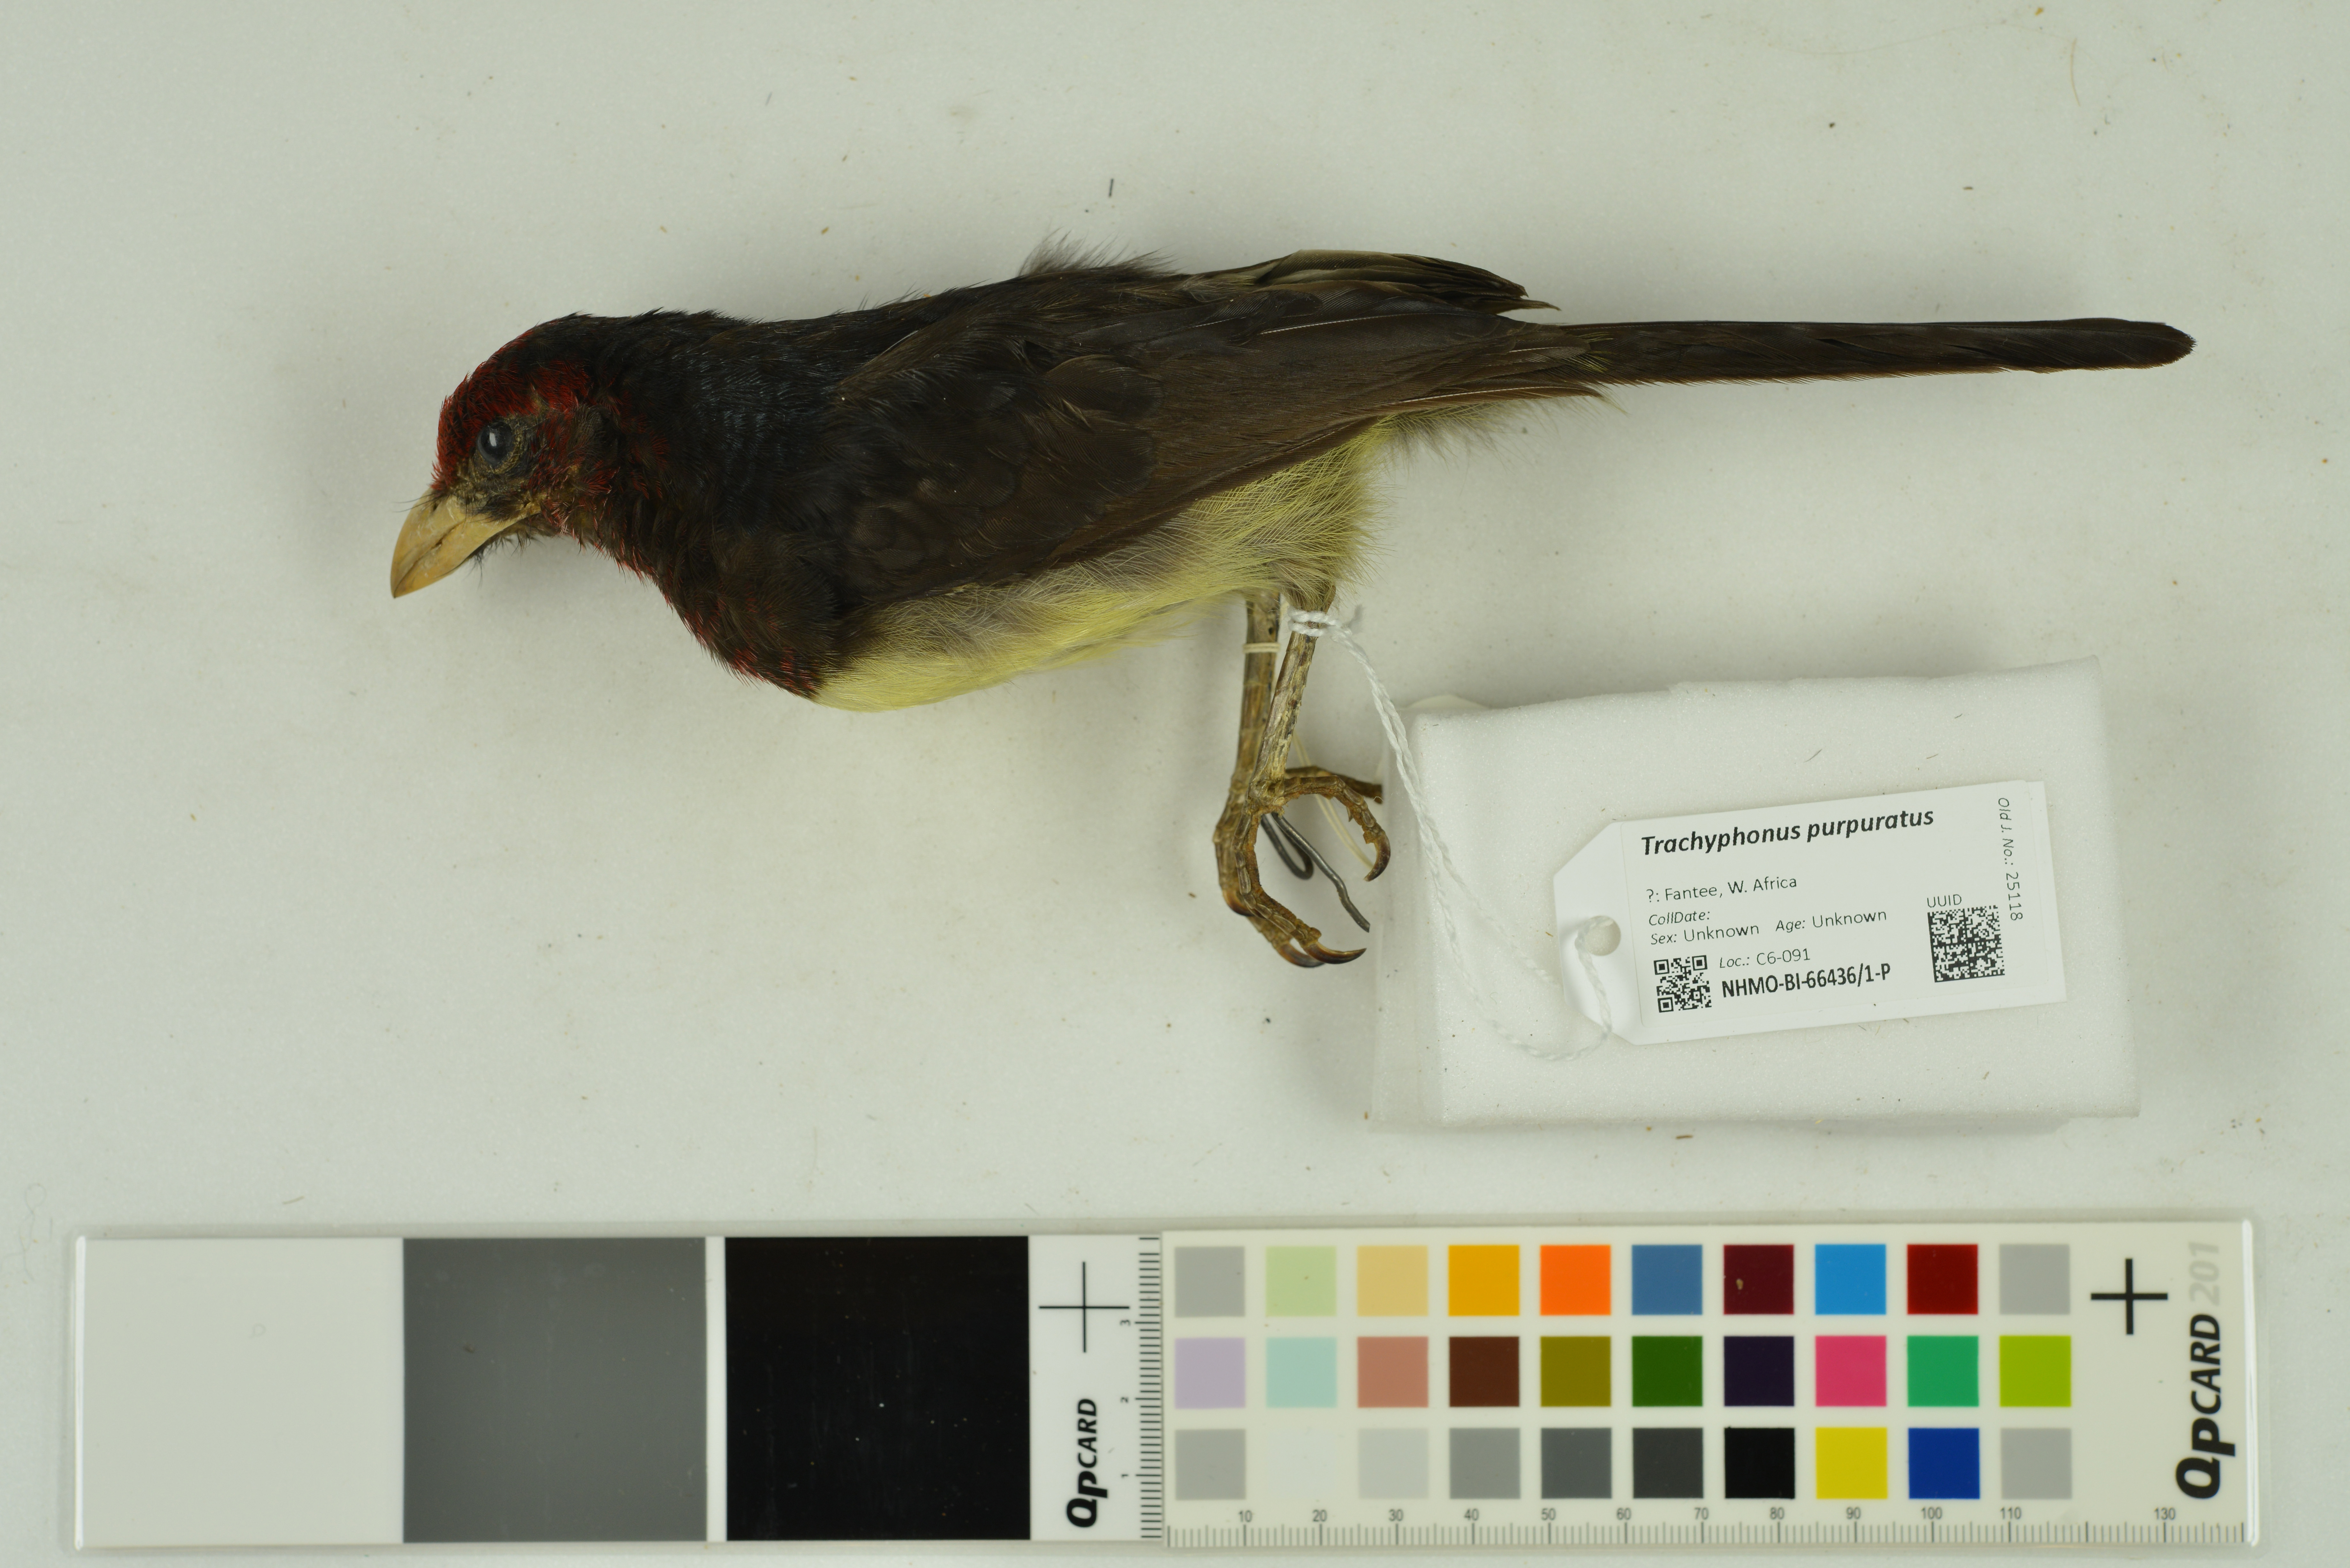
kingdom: Animalia
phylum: Chordata
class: Aves
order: Piciformes
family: Lybiidae
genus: Trachyphonus
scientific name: Trachyphonus purpuratus
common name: Yellow-billed barbet
